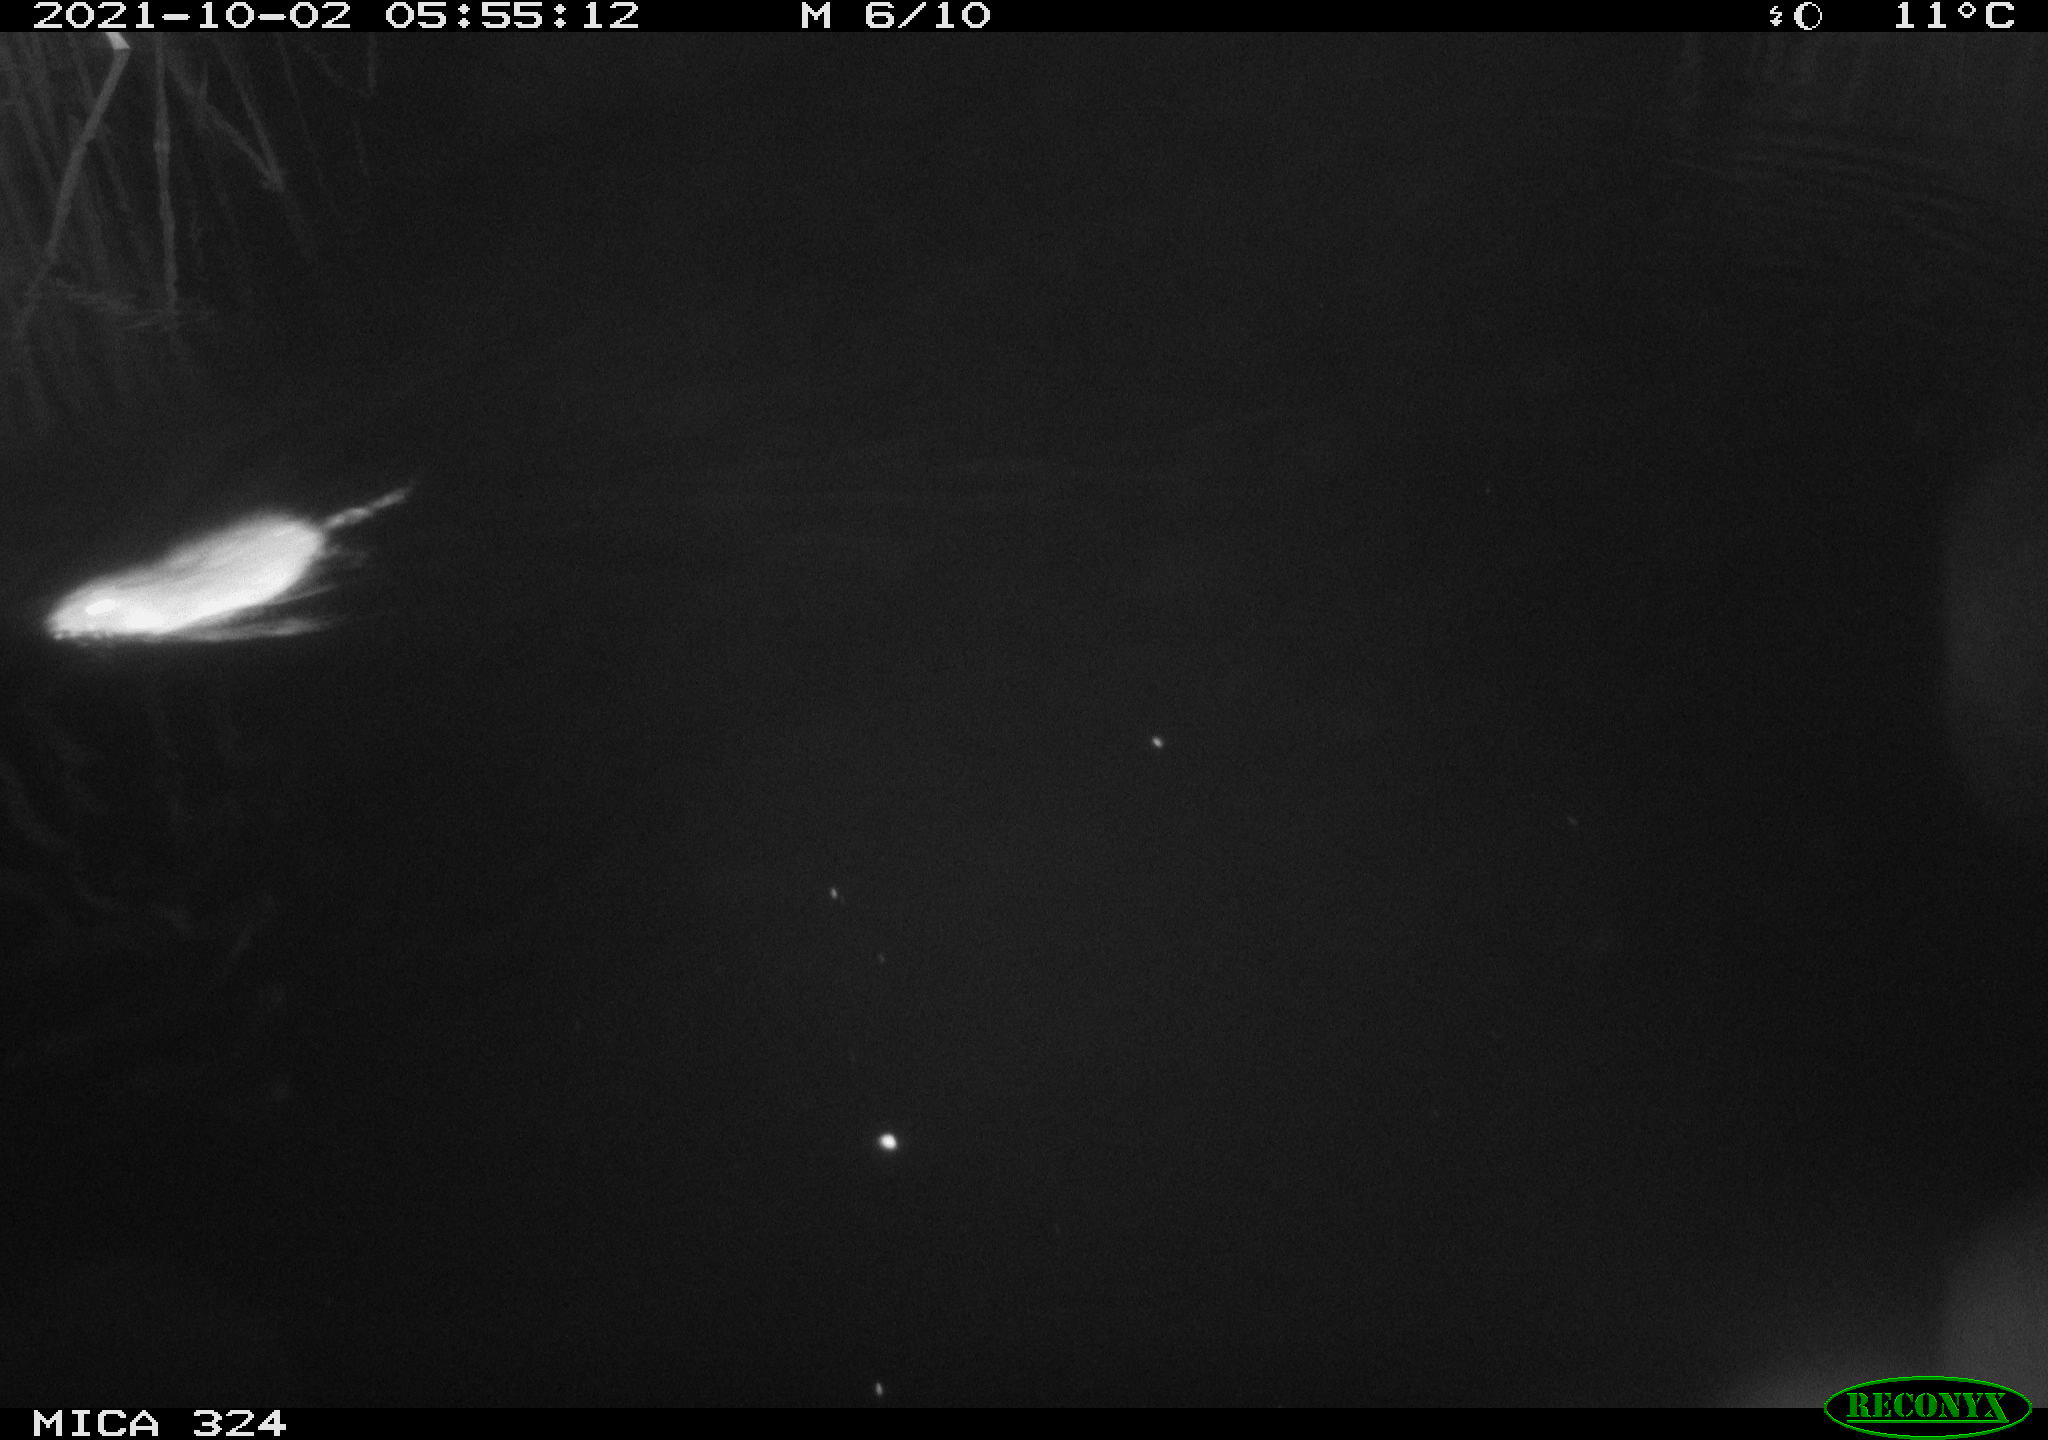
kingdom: Animalia
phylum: Chordata
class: Mammalia
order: Rodentia
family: Cricetidae
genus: Ondatra
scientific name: Ondatra zibethicus
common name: Muskrat
